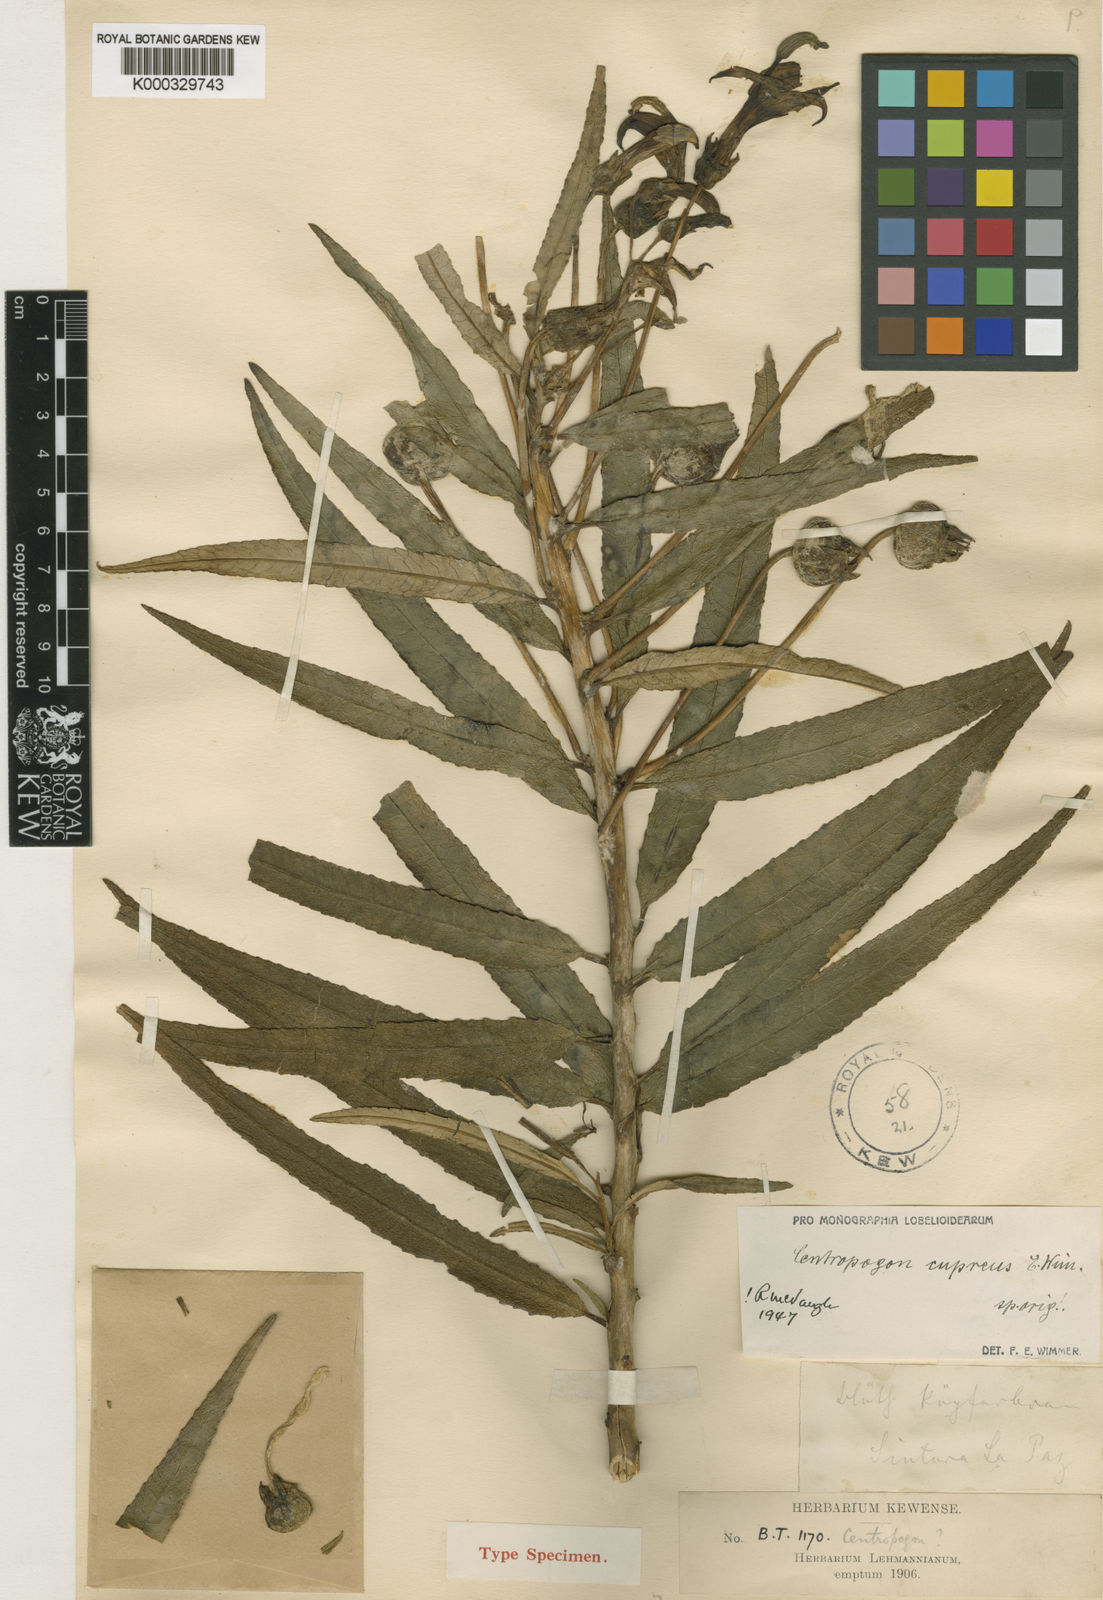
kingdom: Plantae
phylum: Tracheophyta
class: Magnoliopsida
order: Asterales
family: Campanulaceae
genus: Centropogon
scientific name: Centropogon cupreus
